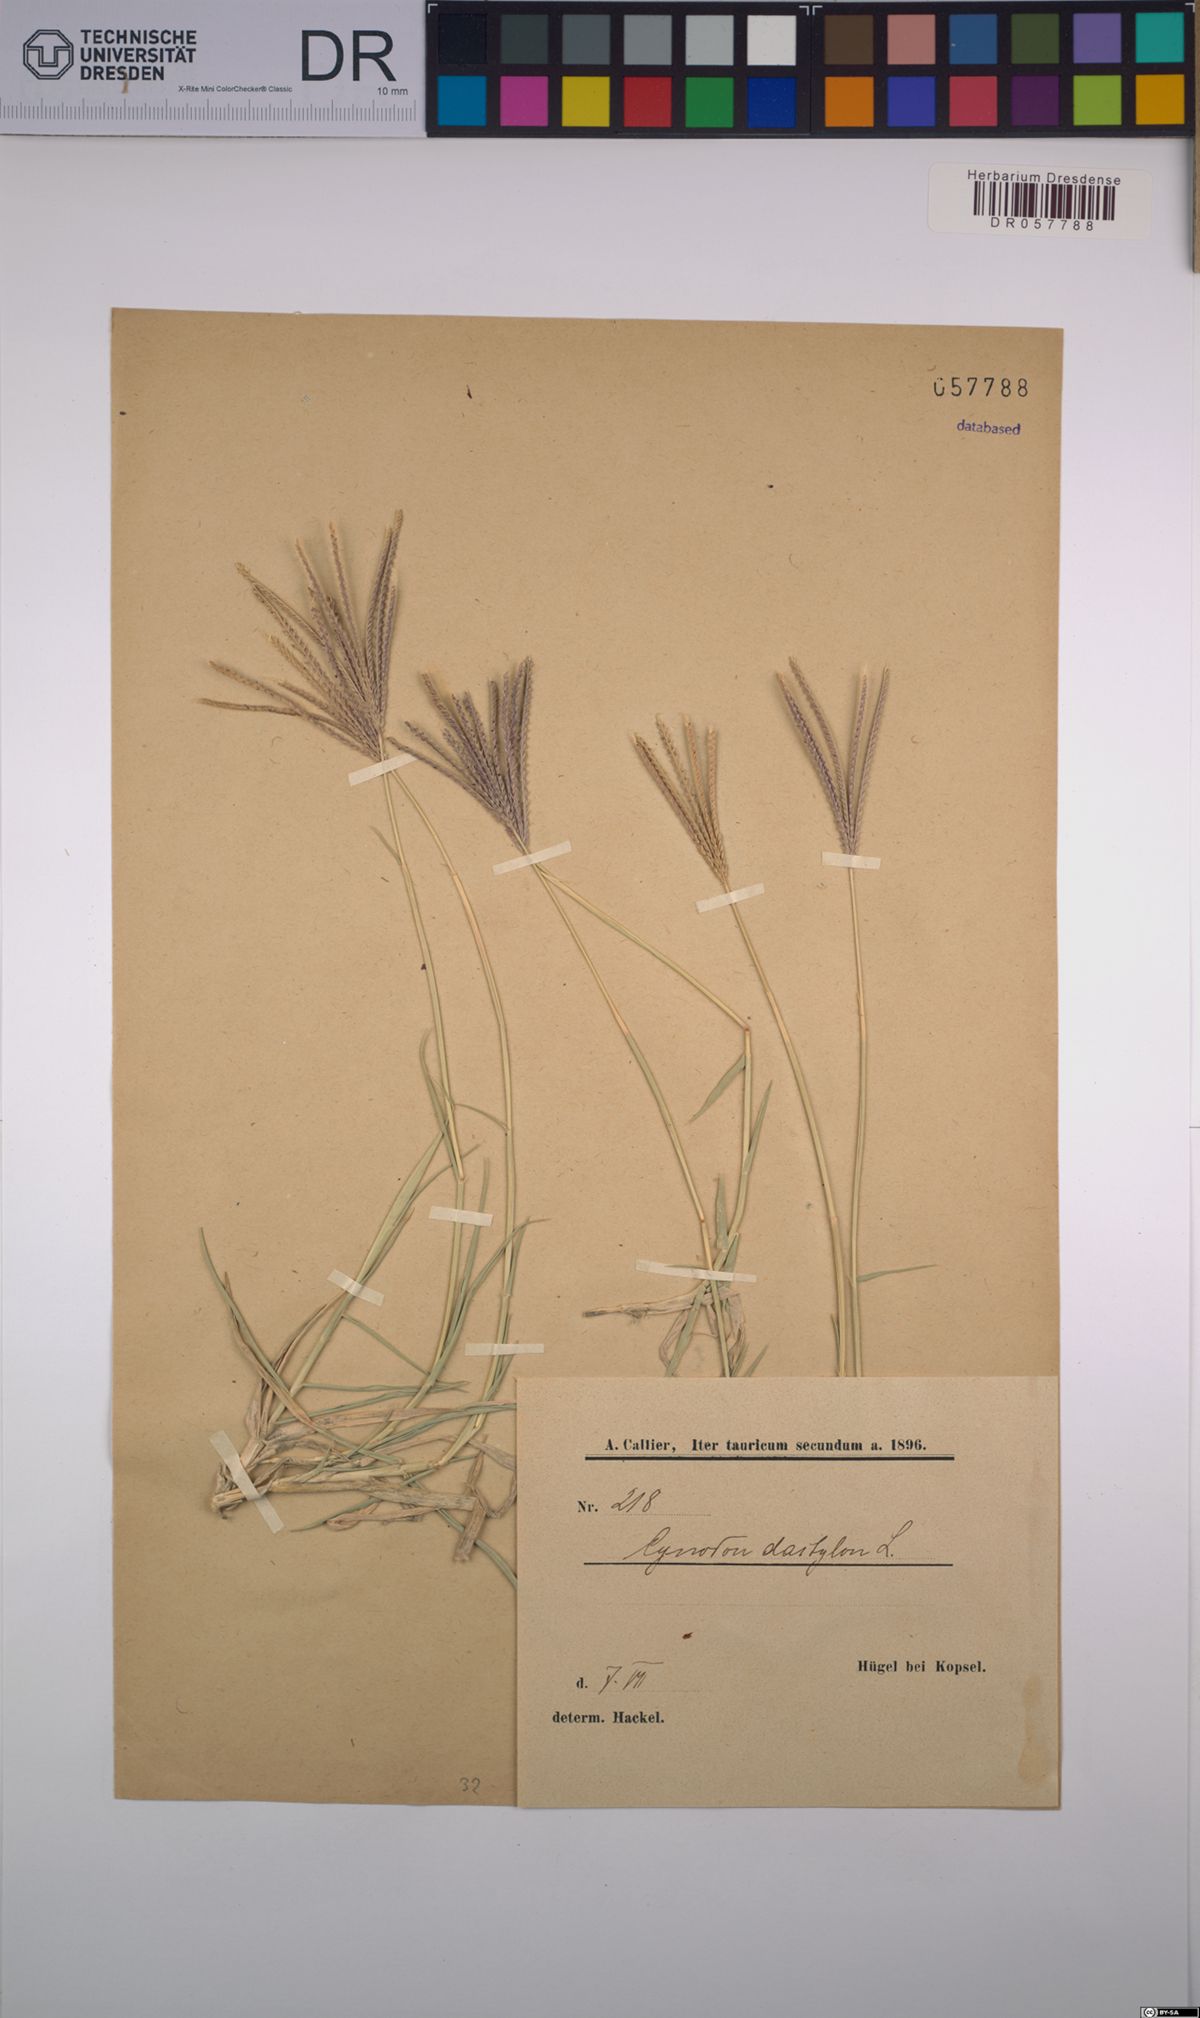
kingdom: Plantae
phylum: Tracheophyta
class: Liliopsida
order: Poales
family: Poaceae
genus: Cynodon
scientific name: Cynodon dactylon
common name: Bermuda grass
